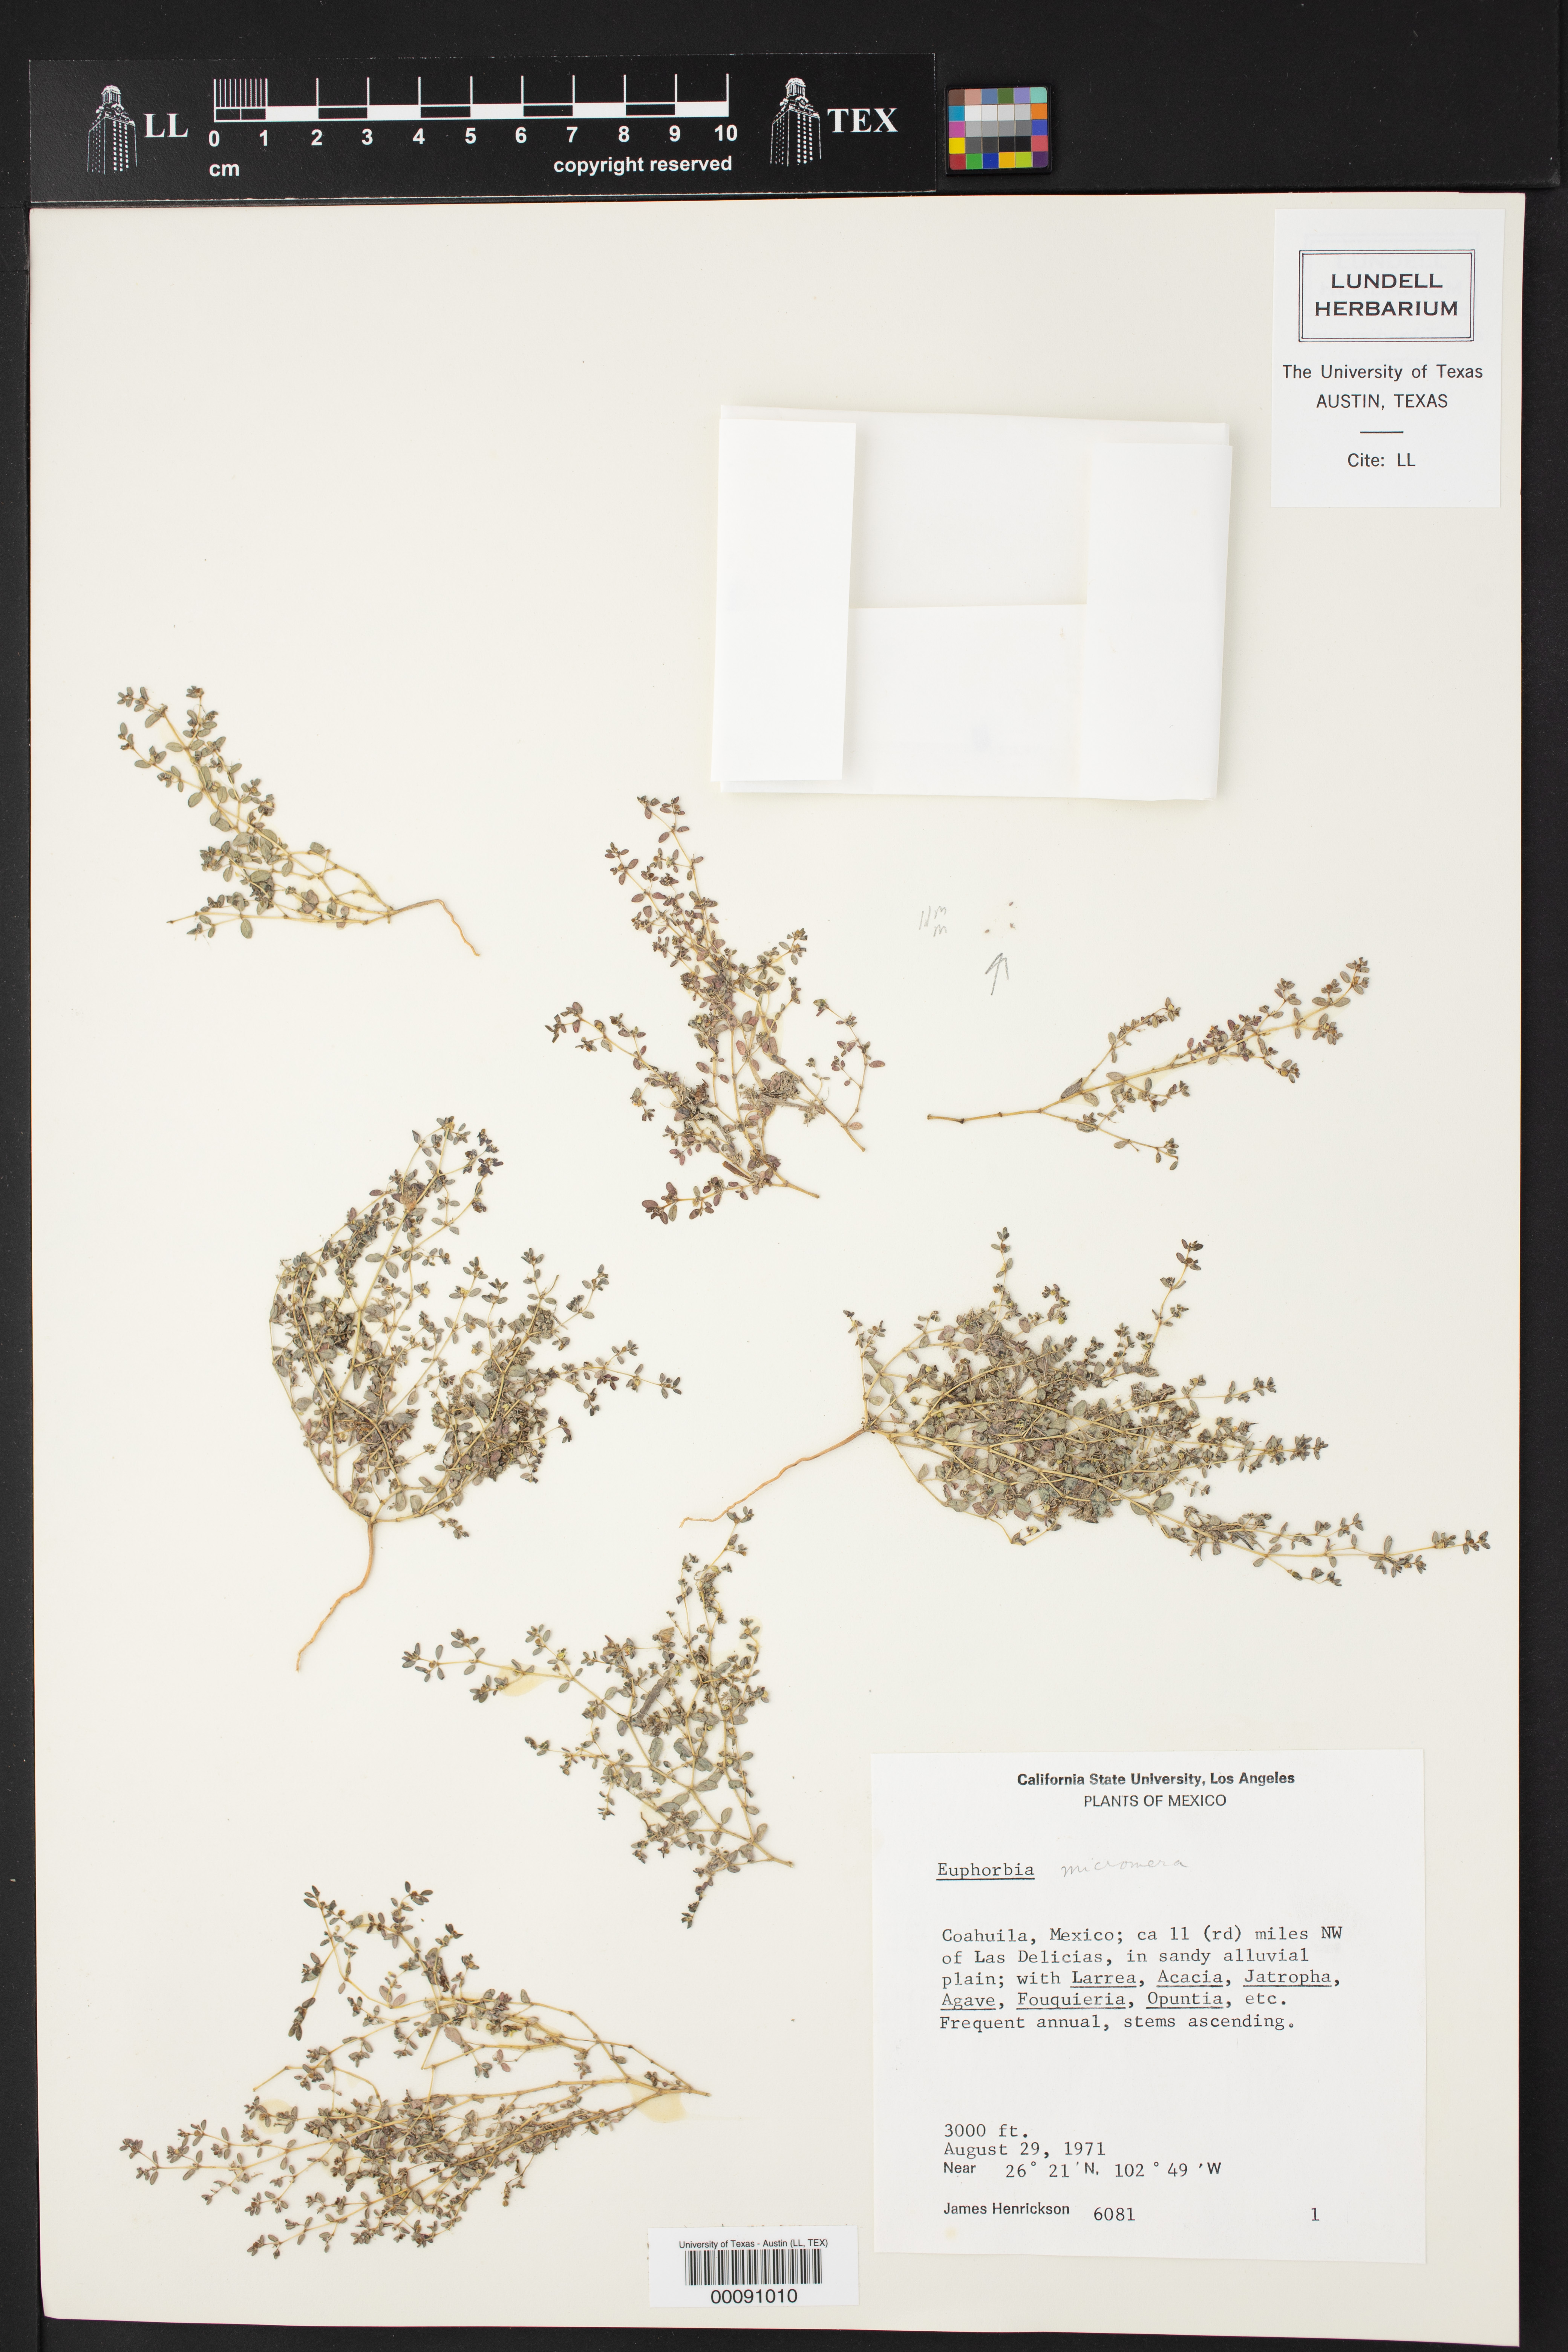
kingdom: Plantae
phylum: Tracheophyta
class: Magnoliopsida
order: Malpighiales
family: Euphorbiaceae
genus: Euphorbia
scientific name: Euphorbia micromera
